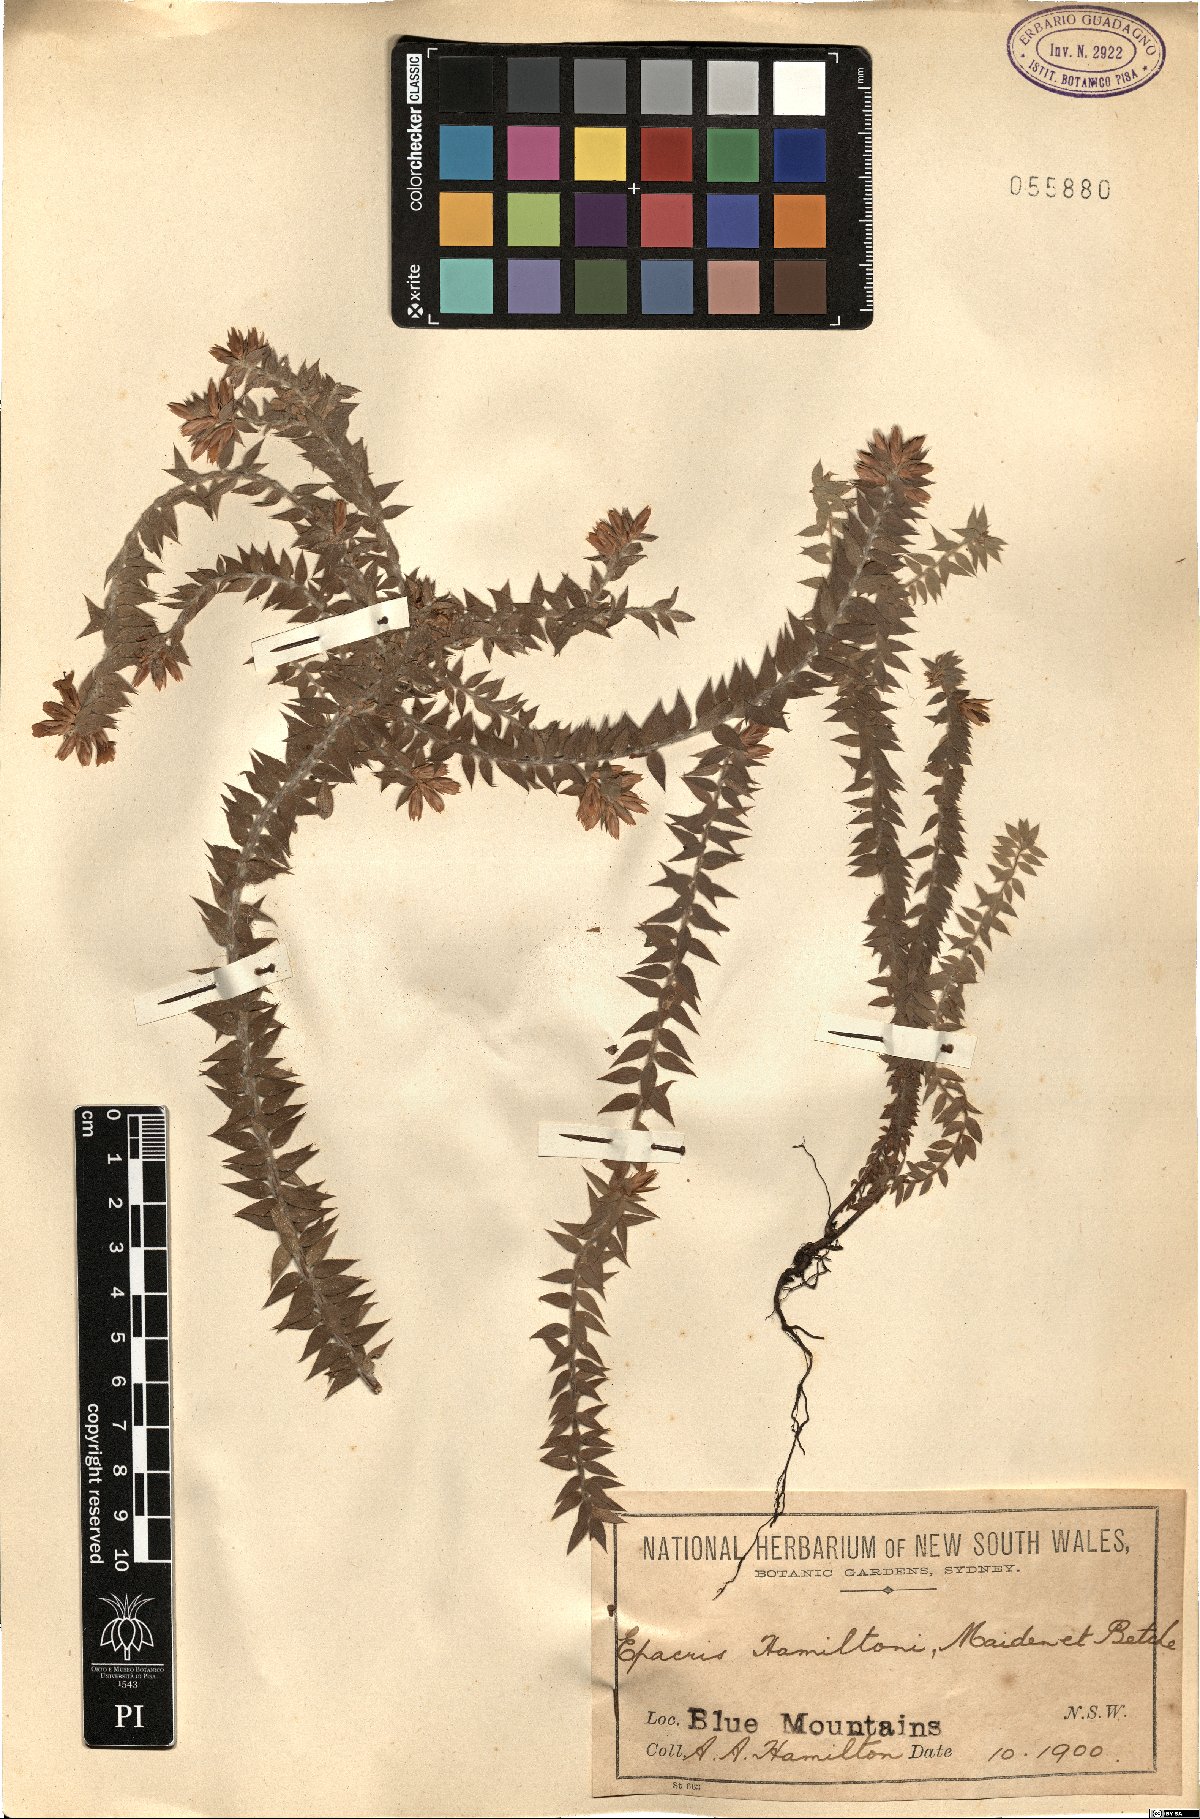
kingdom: Plantae
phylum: Tracheophyta
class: Magnoliopsida
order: Ericales
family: Ericaceae
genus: Epacris
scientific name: Epacris hamiltonii
